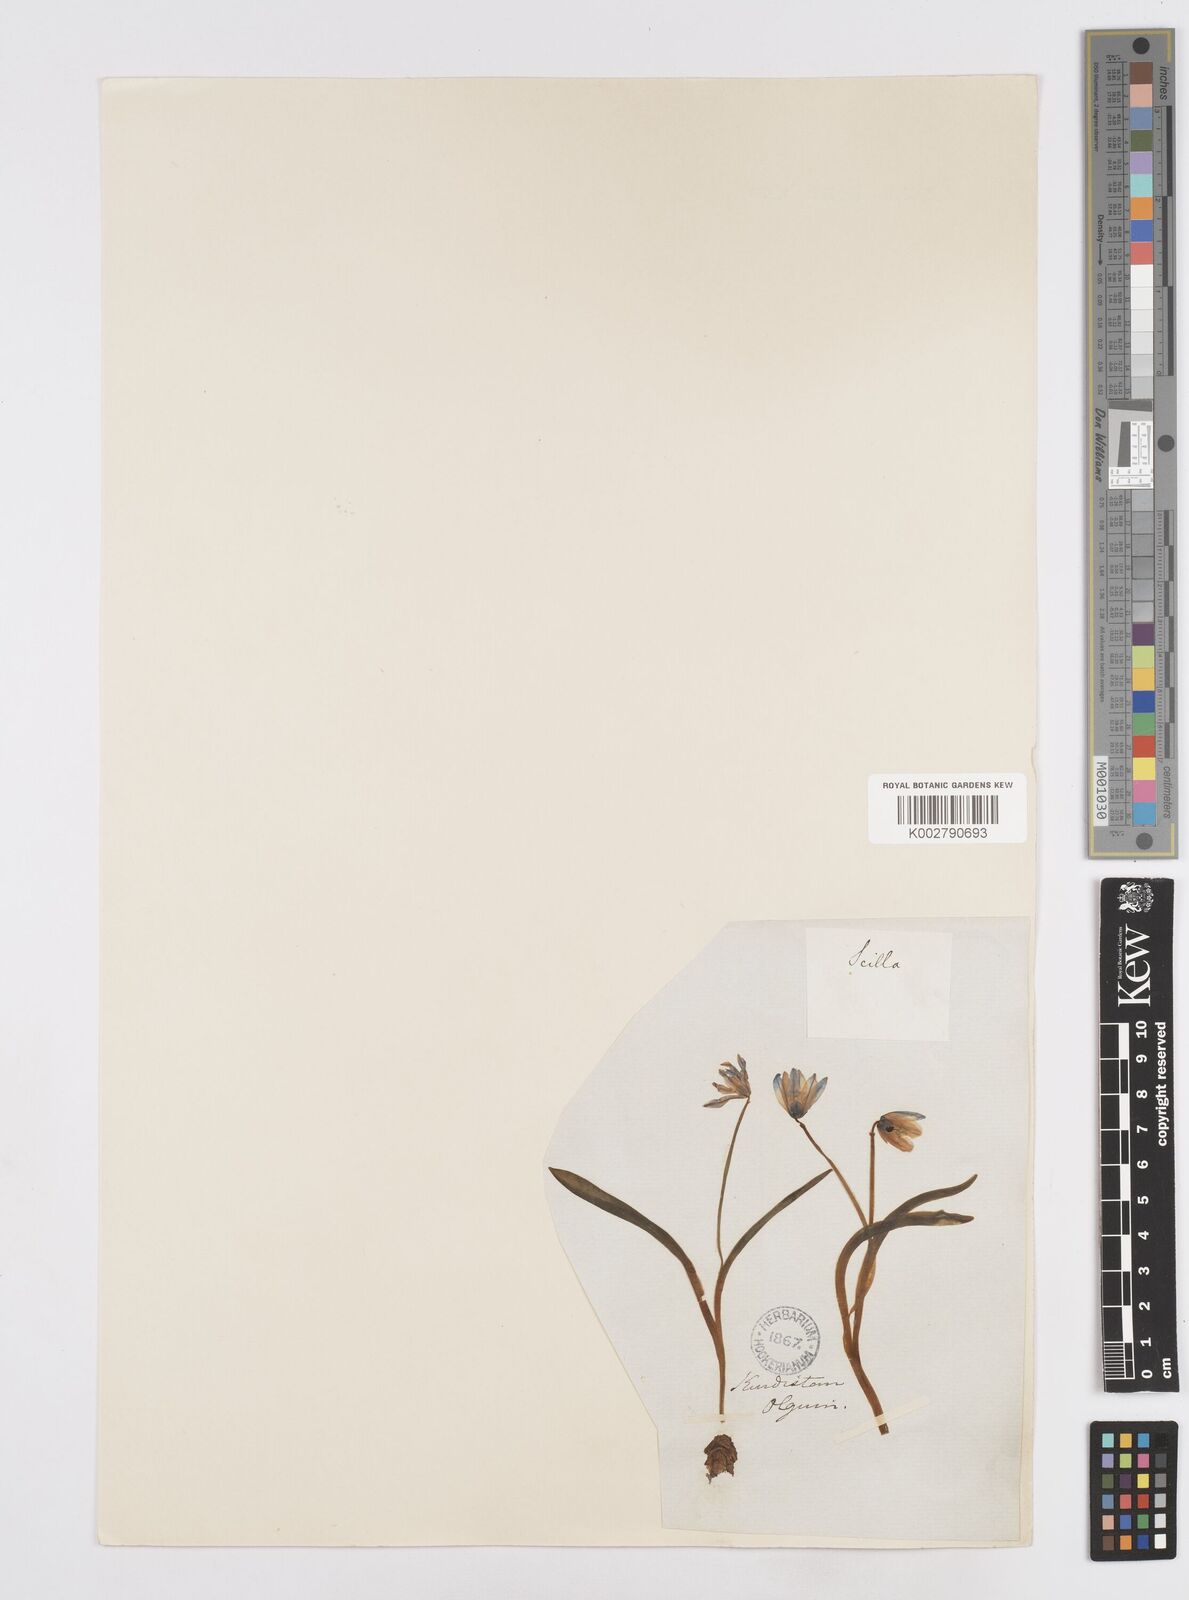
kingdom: Plantae
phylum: Tracheophyta
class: Liliopsida
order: Asparagales
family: Asparagaceae
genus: Scilla
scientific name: Scilla siberica
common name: Siberian squill
